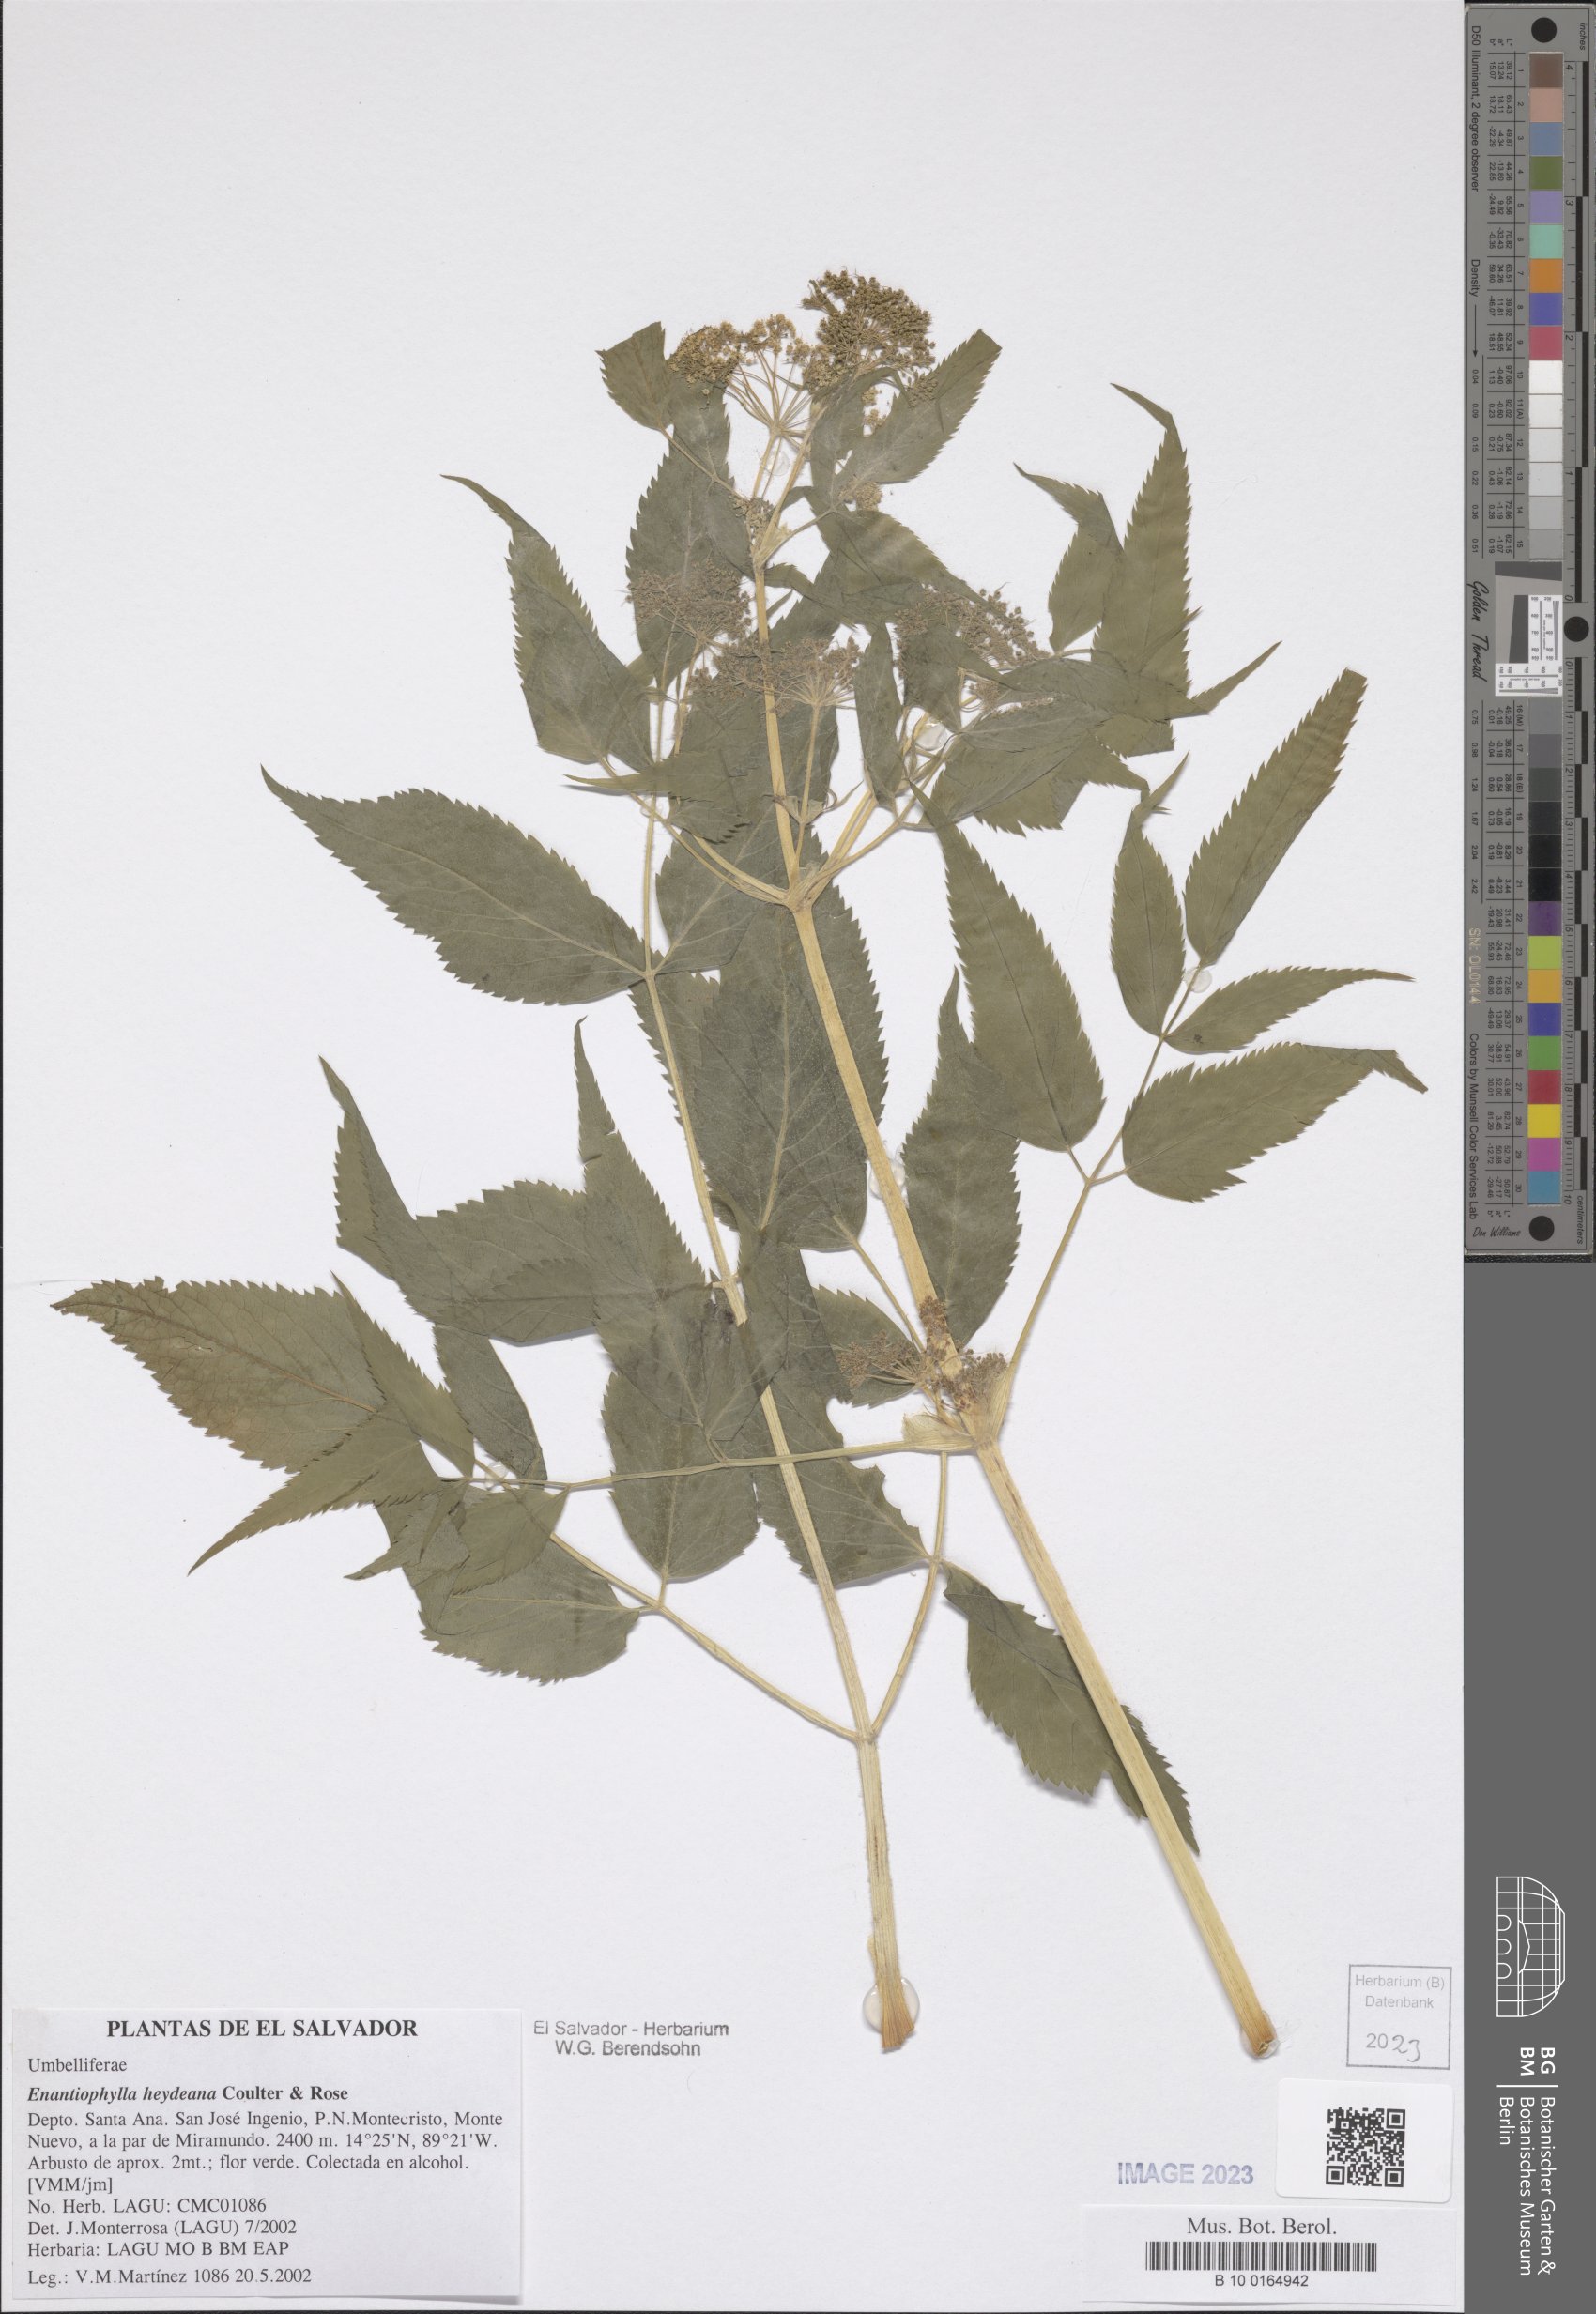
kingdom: Plantae
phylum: Tracheophyta
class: Magnoliopsida
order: Apiales
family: Apiaceae
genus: Enantiophylla
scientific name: Enantiophylla heydeana
